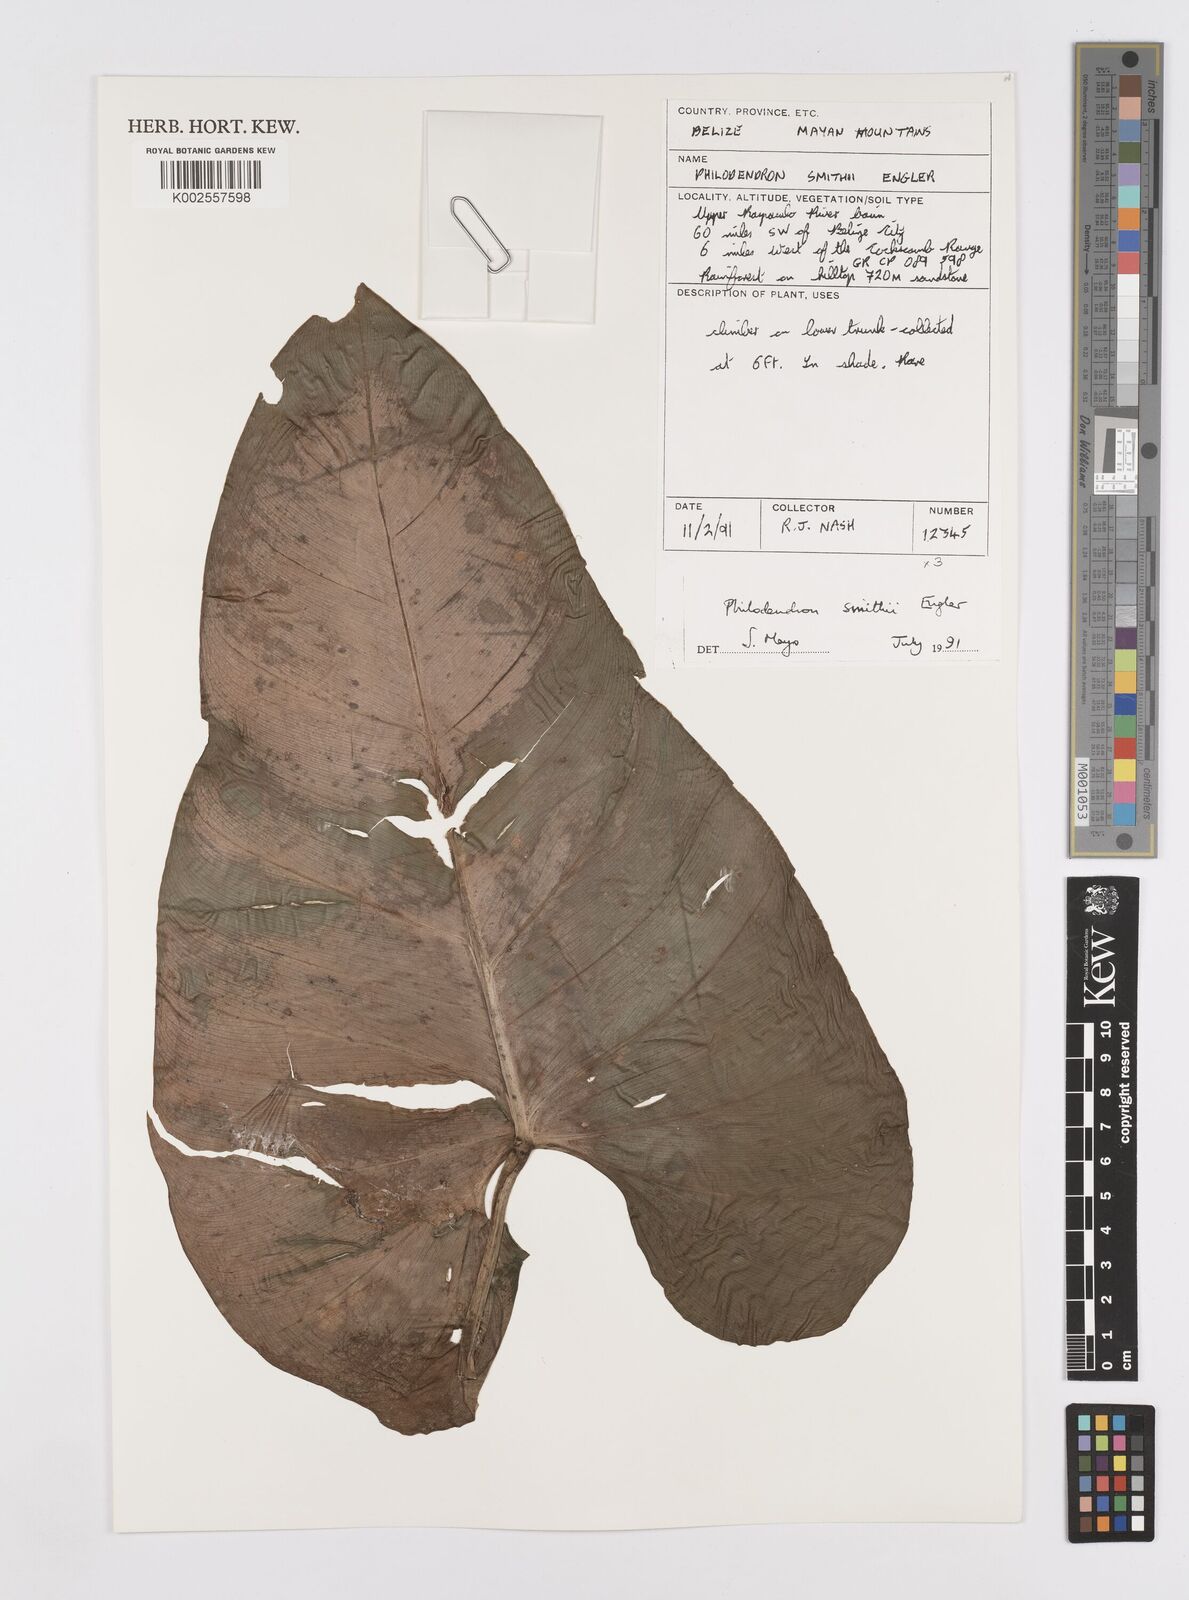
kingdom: Plantae
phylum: Tracheophyta
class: Liliopsida
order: Alismatales
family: Araceae
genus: Philodendron
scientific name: Philodendron smithii
